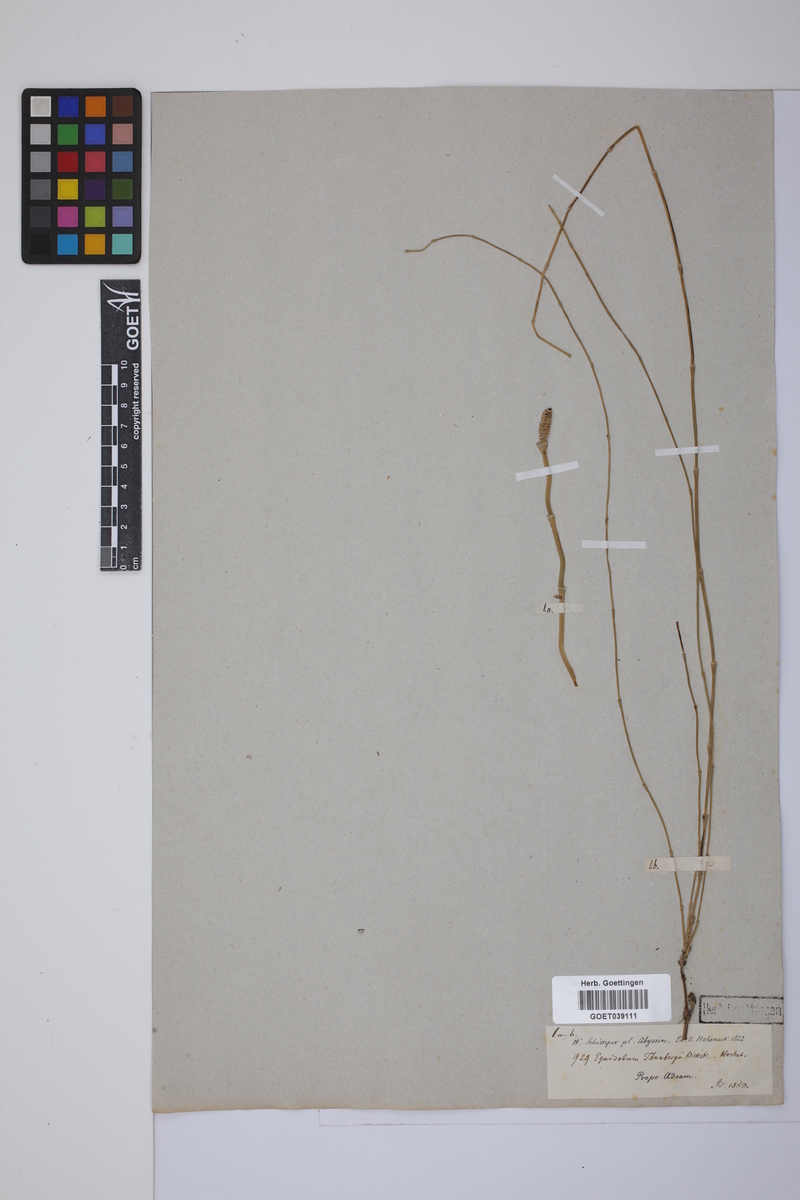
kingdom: Plantae
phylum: Tracheophyta
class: Polypodiopsida
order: Equisetales
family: Equisetaceae
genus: Equisetum
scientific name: Equisetum ramosissimum
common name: Branched horsetail
